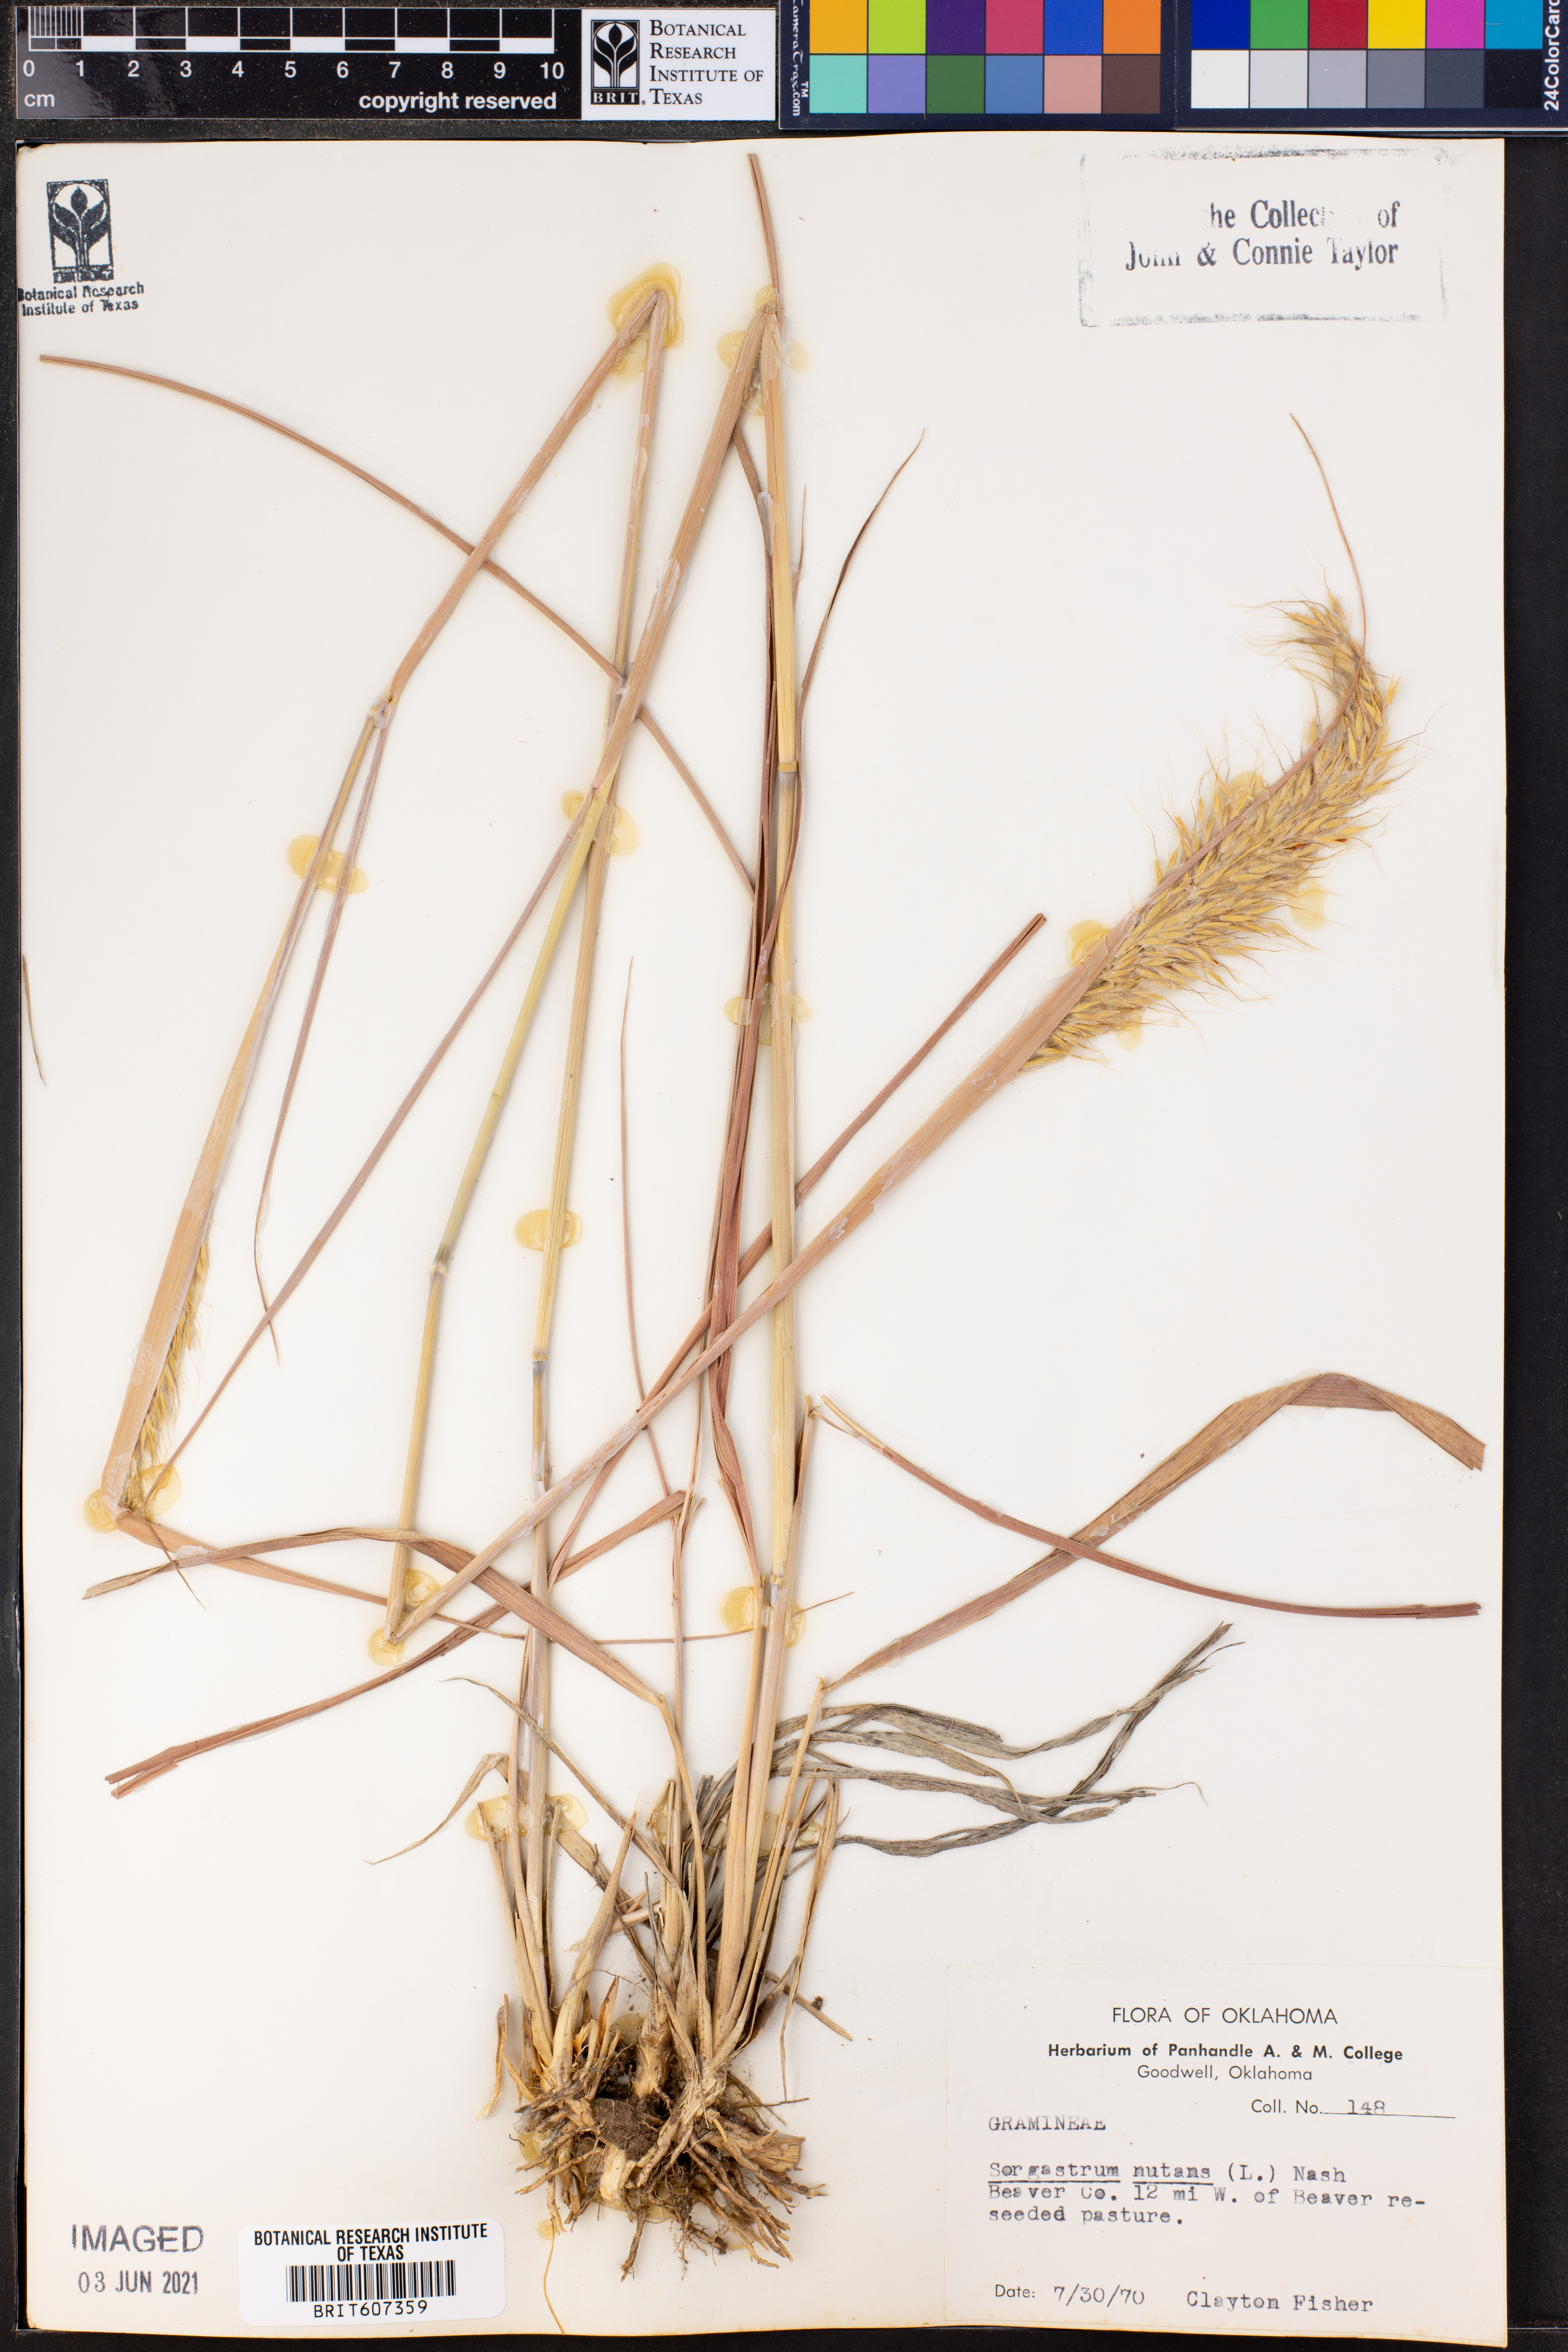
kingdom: Plantae
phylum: Tracheophyta
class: Liliopsida
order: Poales
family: Poaceae
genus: Sorghastrum
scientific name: Sorghastrum nutans
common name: Indian grass
